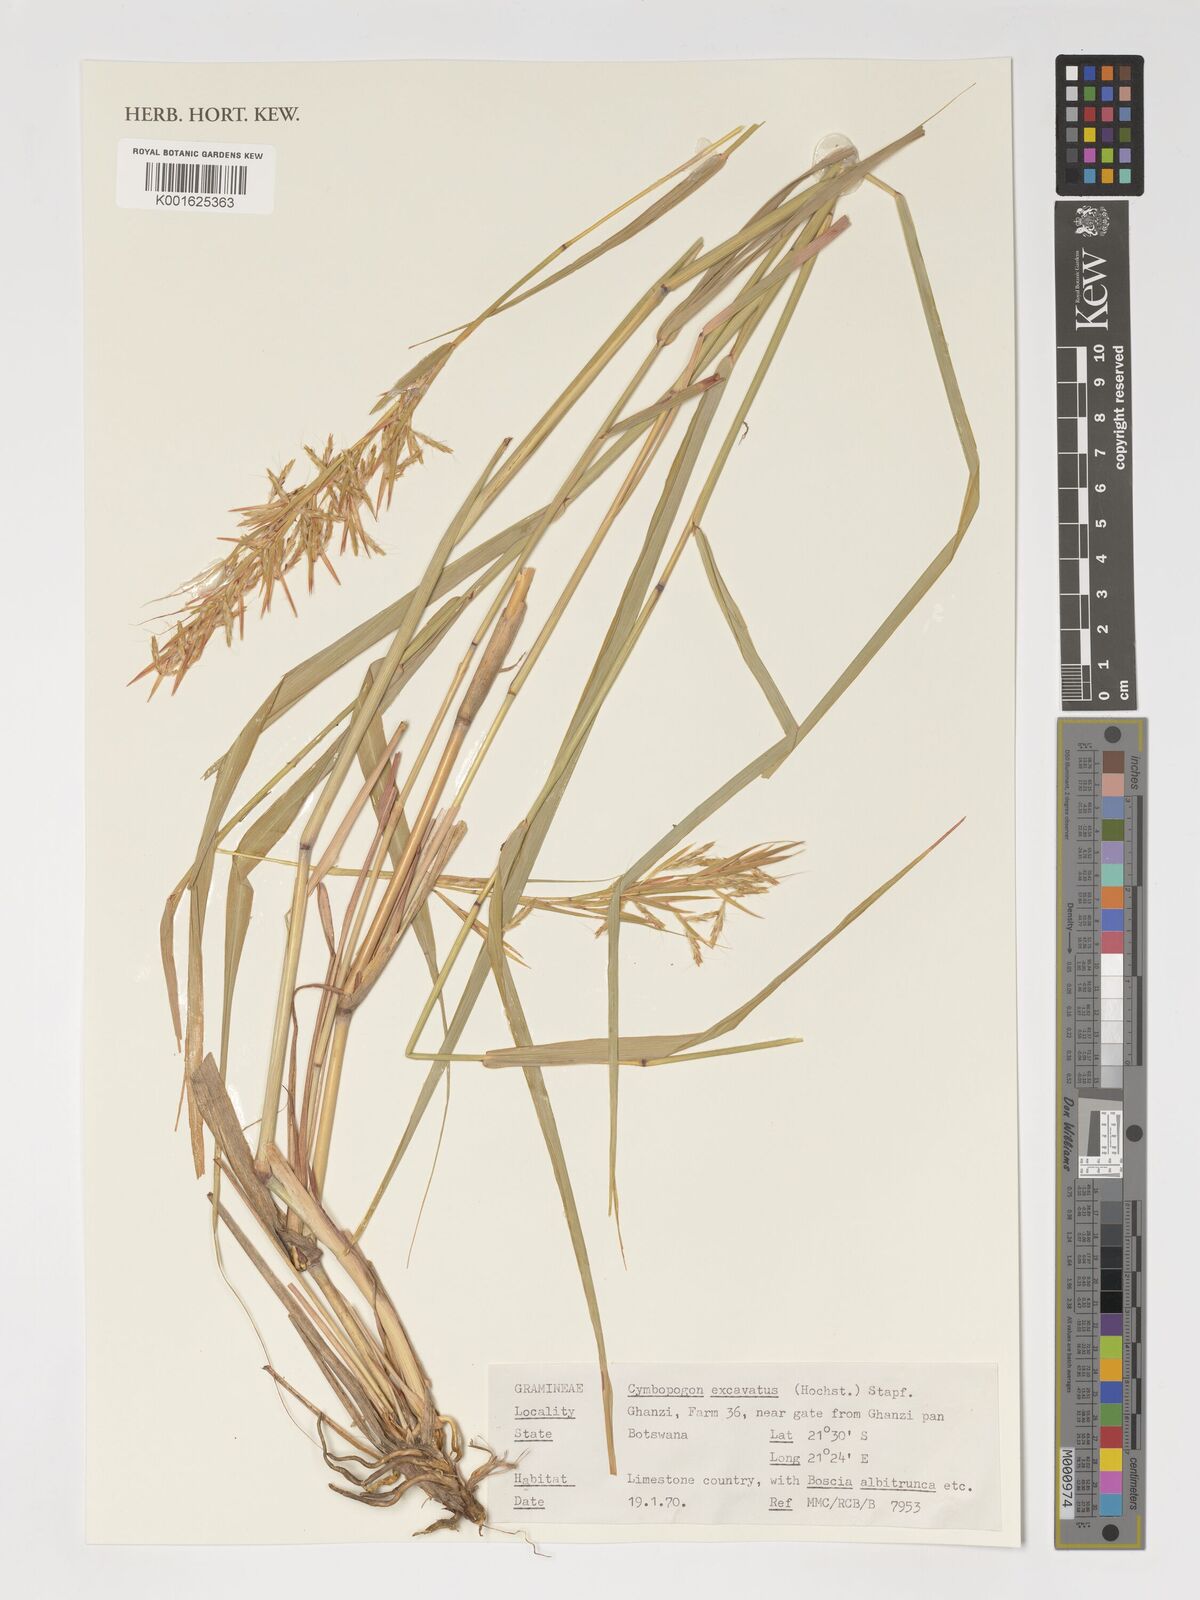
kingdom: Plantae
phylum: Tracheophyta
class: Liliopsida
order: Poales
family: Poaceae
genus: Cymbopogon
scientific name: Cymbopogon caesius
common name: Kachi grass
